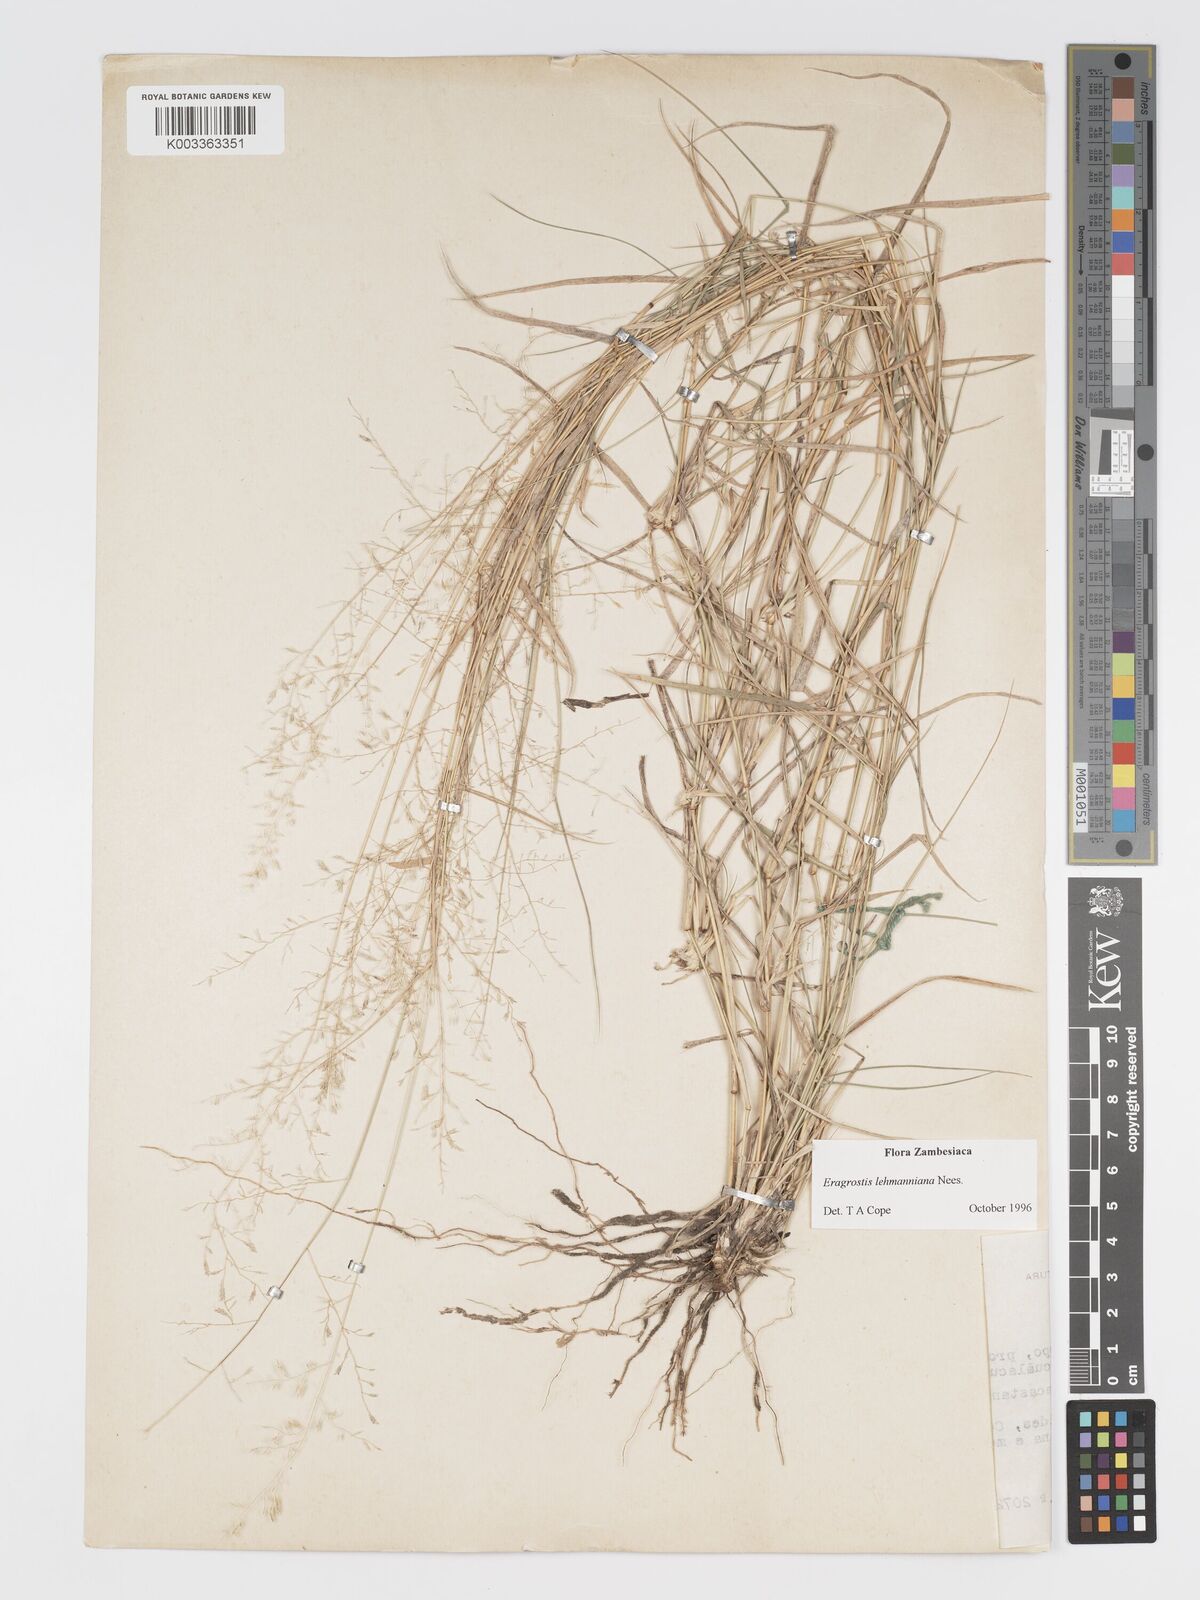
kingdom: Plantae
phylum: Tracheophyta
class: Liliopsida
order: Poales
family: Poaceae
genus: Eragrostis
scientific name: Eragrostis lehmanniana
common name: Lehmann lovegrass
